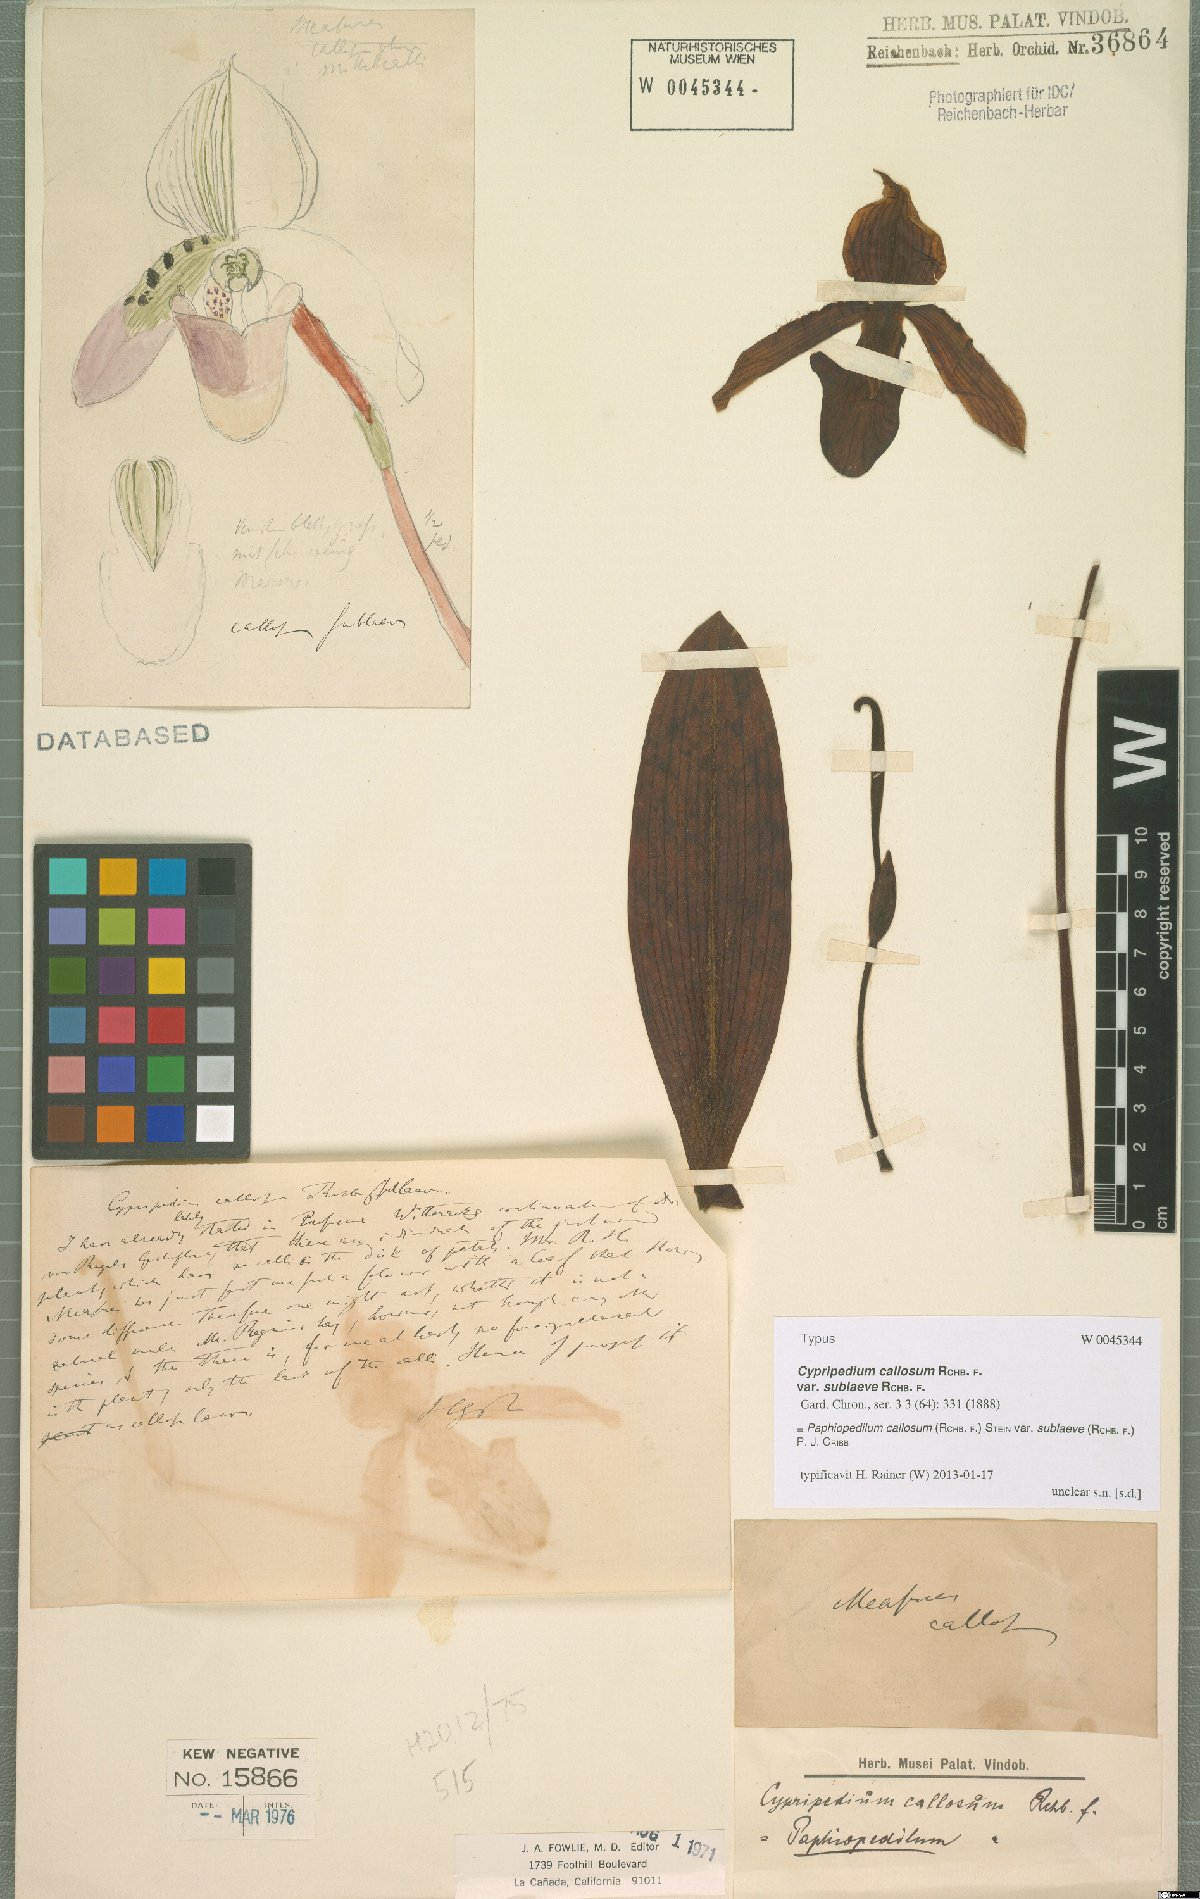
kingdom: Plantae
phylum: Tracheophyta
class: Liliopsida
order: Asparagales
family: Orchidaceae
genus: Paphiopedilum
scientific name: Paphiopedilum callosum
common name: Callus paphiopedilum
